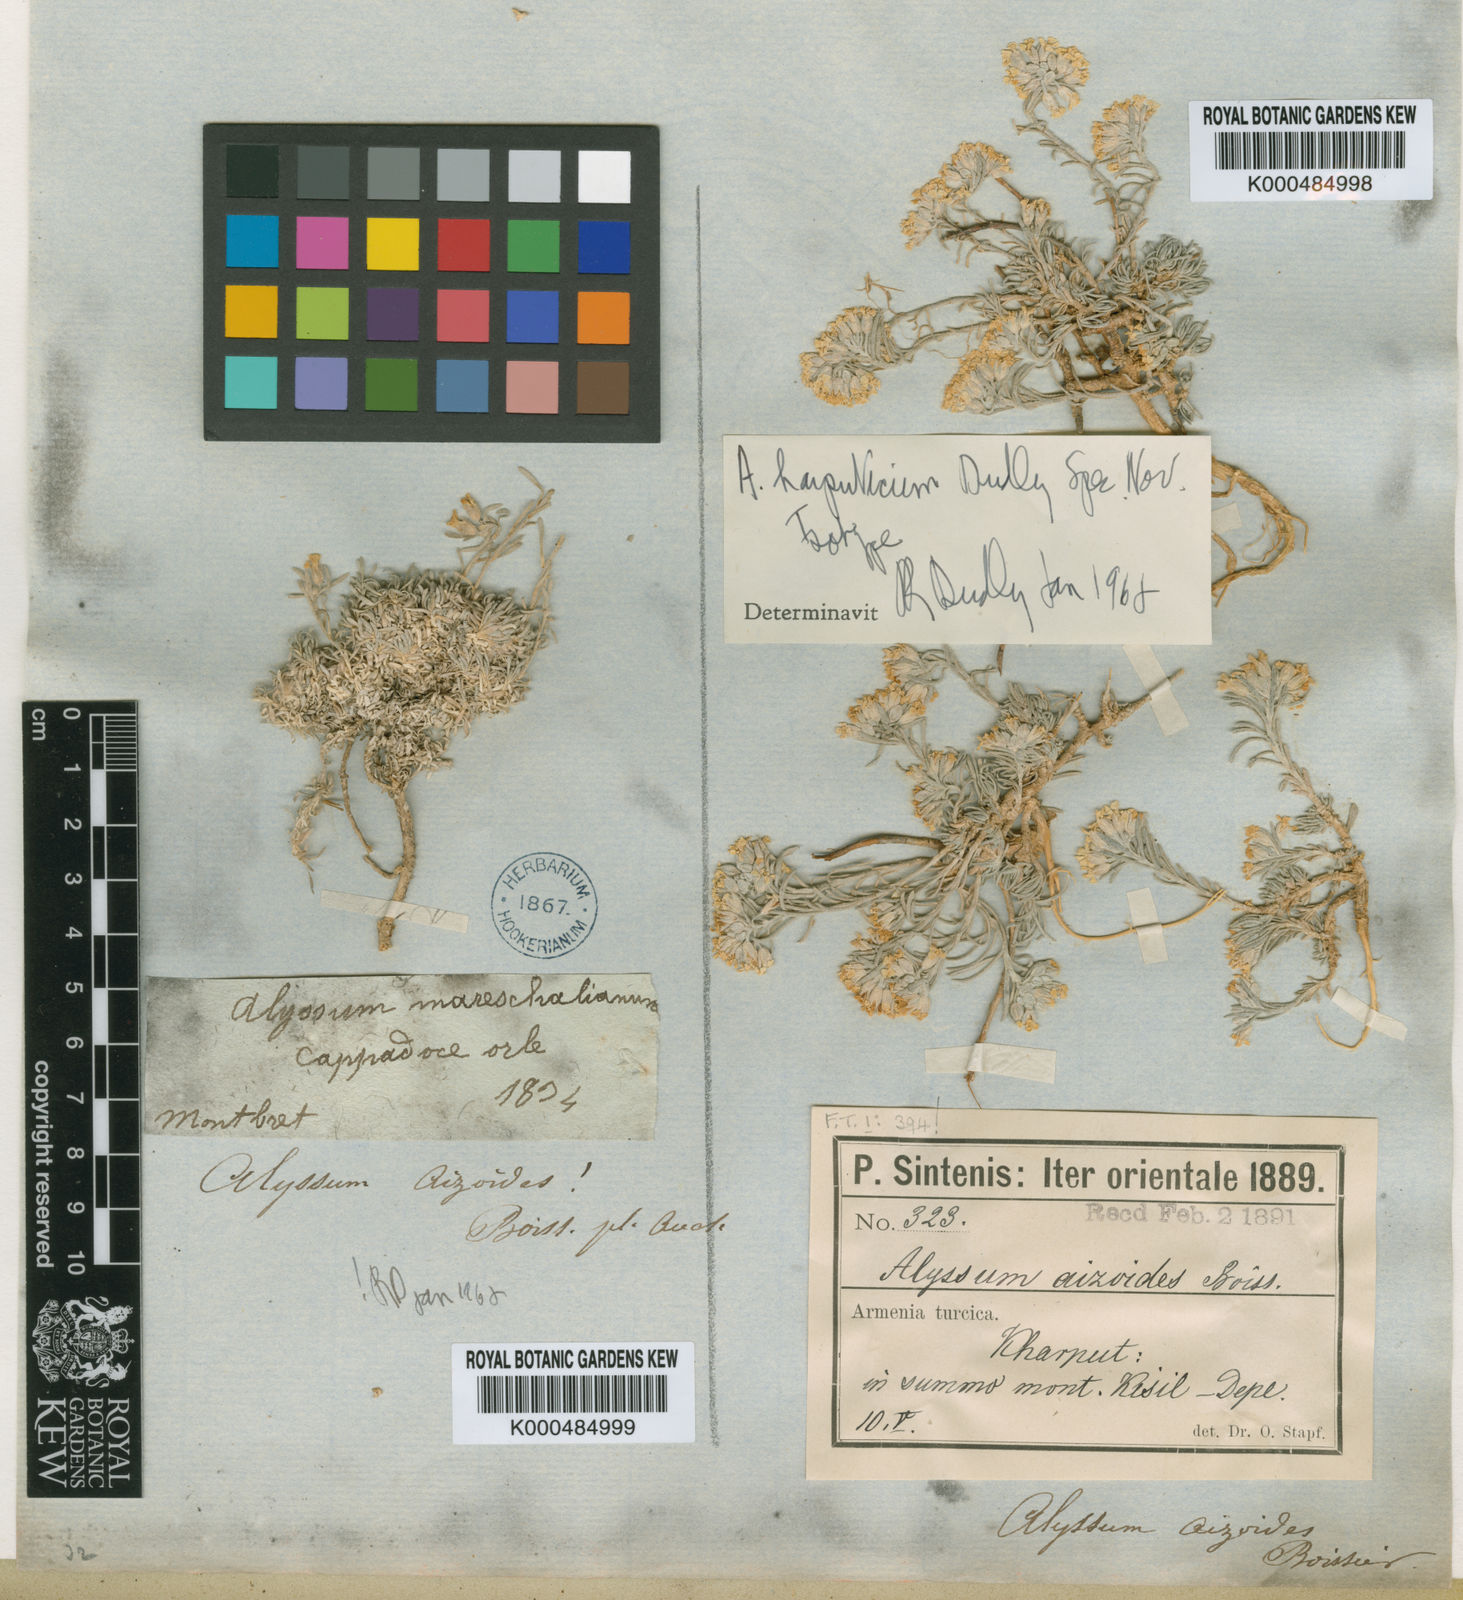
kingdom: Plantae
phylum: Tracheophyta
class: Magnoliopsida
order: Brassicales
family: Brassicaceae
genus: Alyssum
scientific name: Alyssum harputicum
